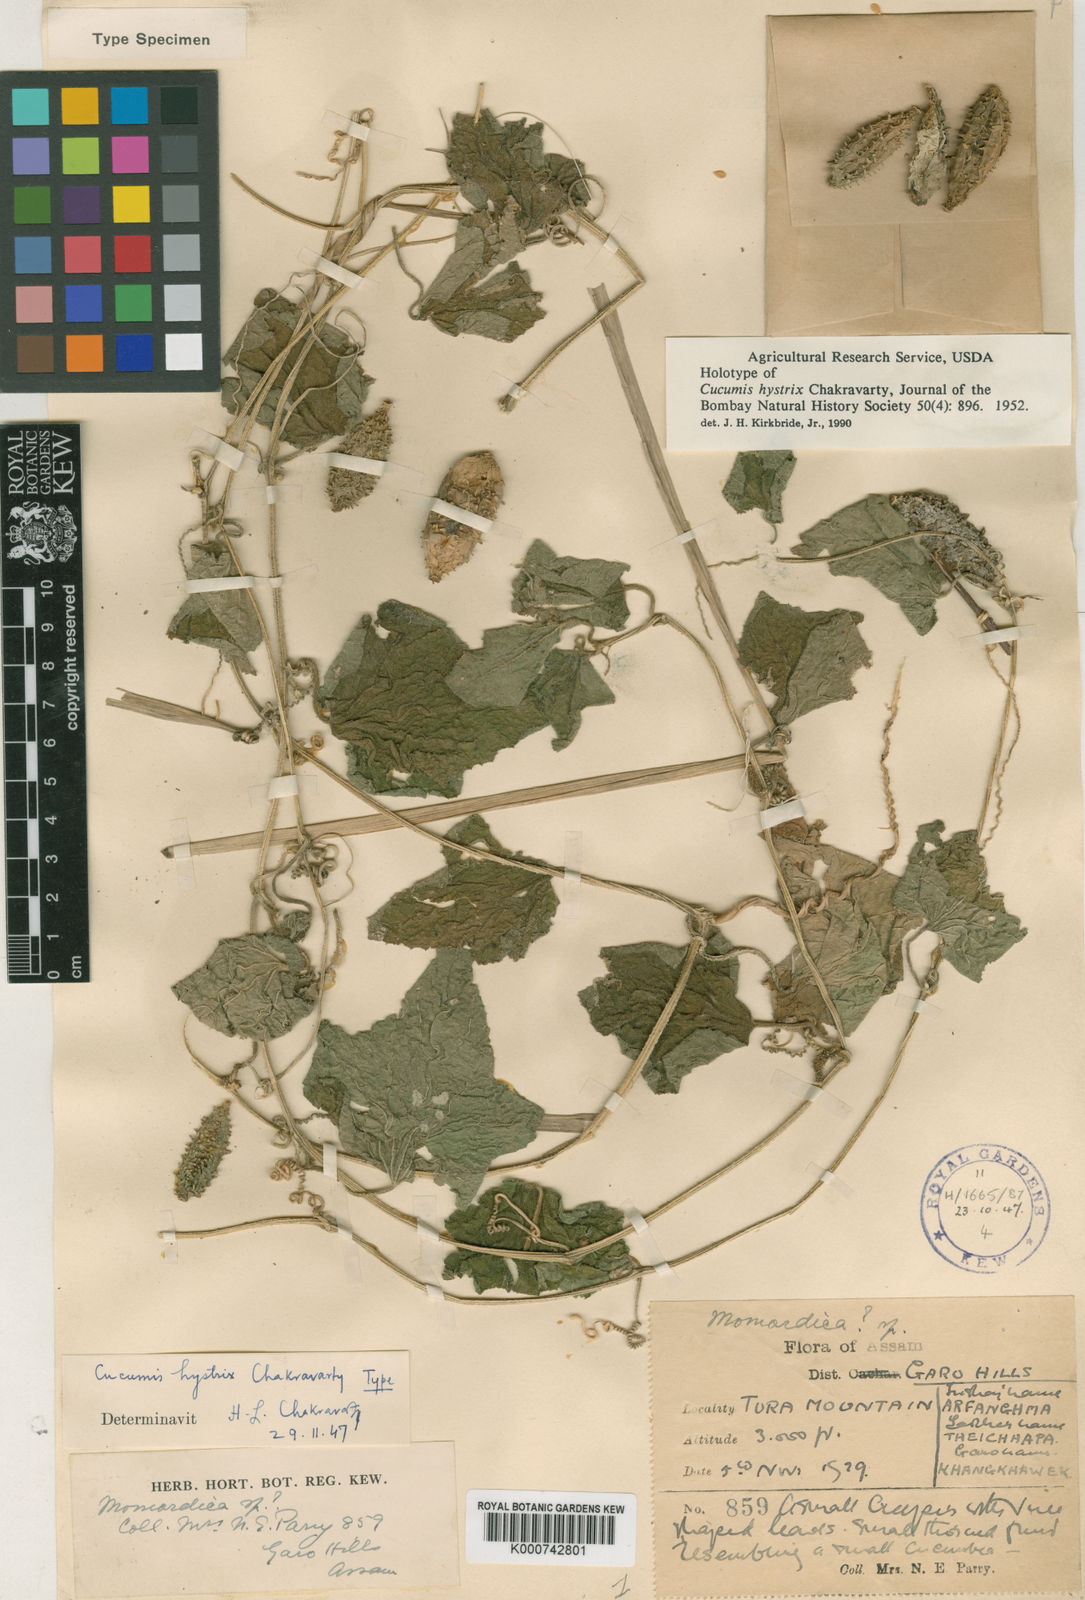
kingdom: Plantae
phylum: Tracheophyta
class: Magnoliopsida
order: Cucurbitales
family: Cucurbitaceae
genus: Cucumis
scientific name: Cucumis hystrix
